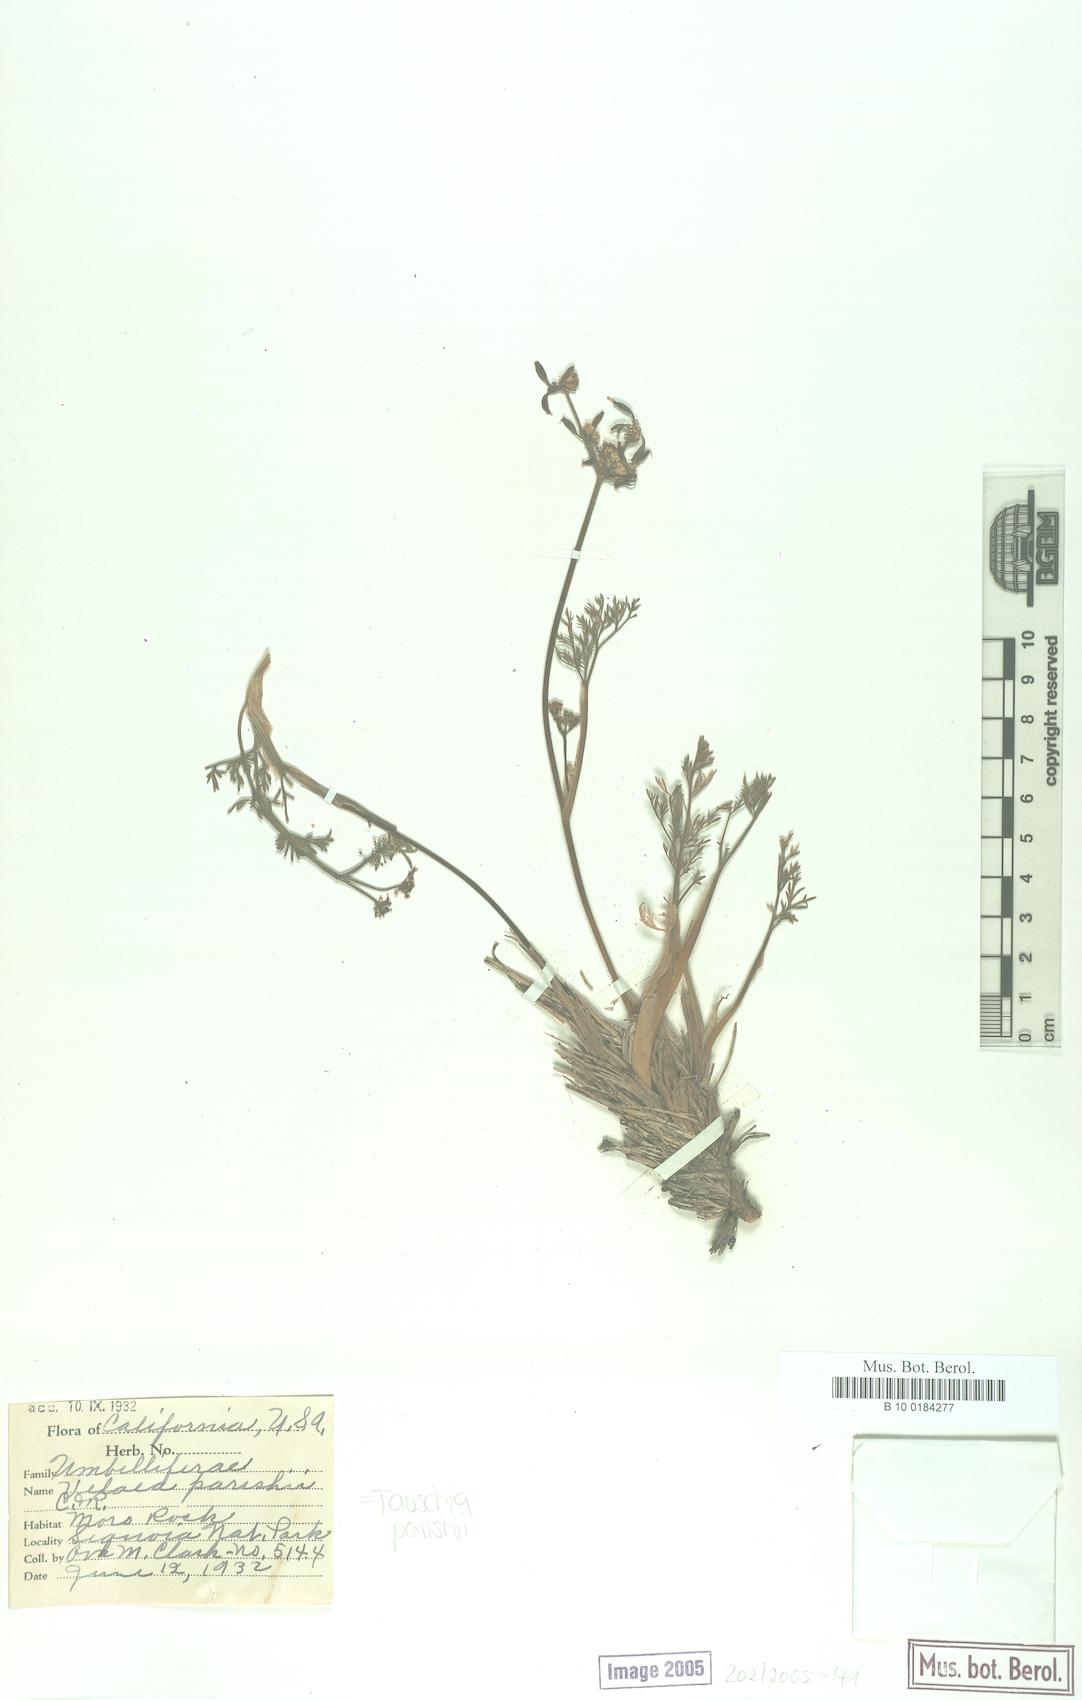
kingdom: Plantae
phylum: Tracheophyta
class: Magnoliopsida
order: Apiales
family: Apiaceae
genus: Tauschia
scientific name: Tauschia parishii
